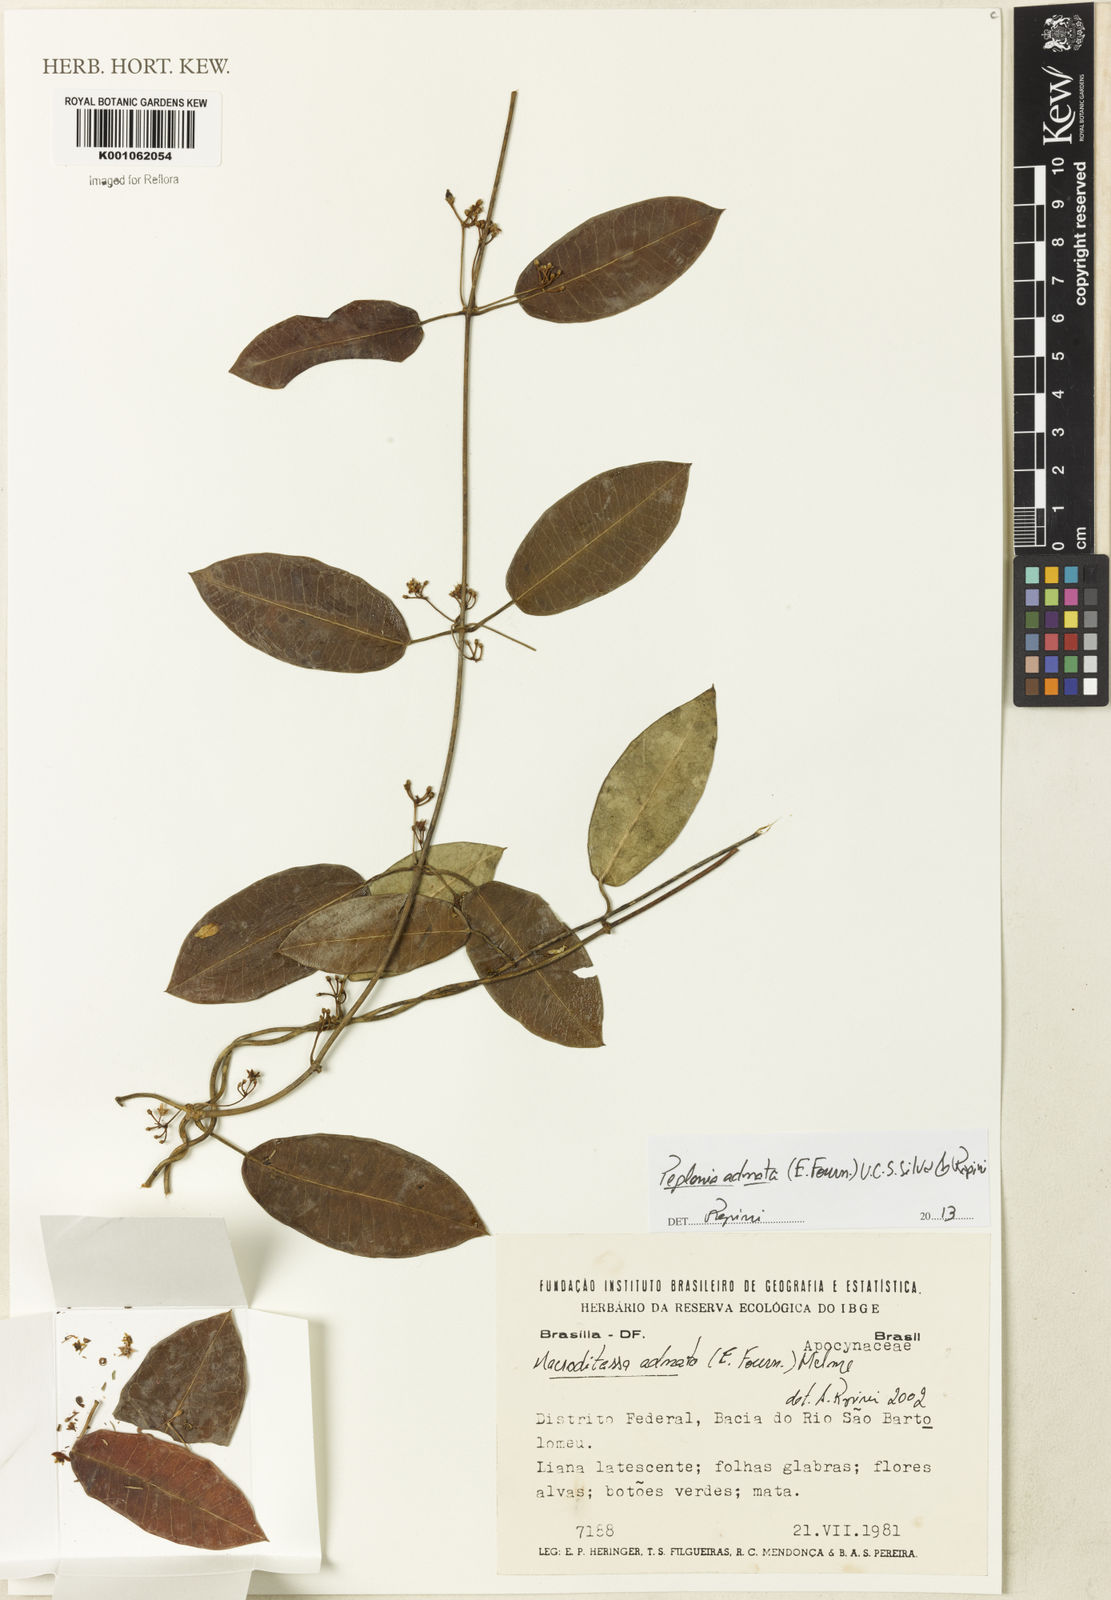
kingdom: Plantae
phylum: Tracheophyta
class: Magnoliopsida
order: Gentianales
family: Apocynaceae
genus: Peplonia
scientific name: Peplonia adnata
